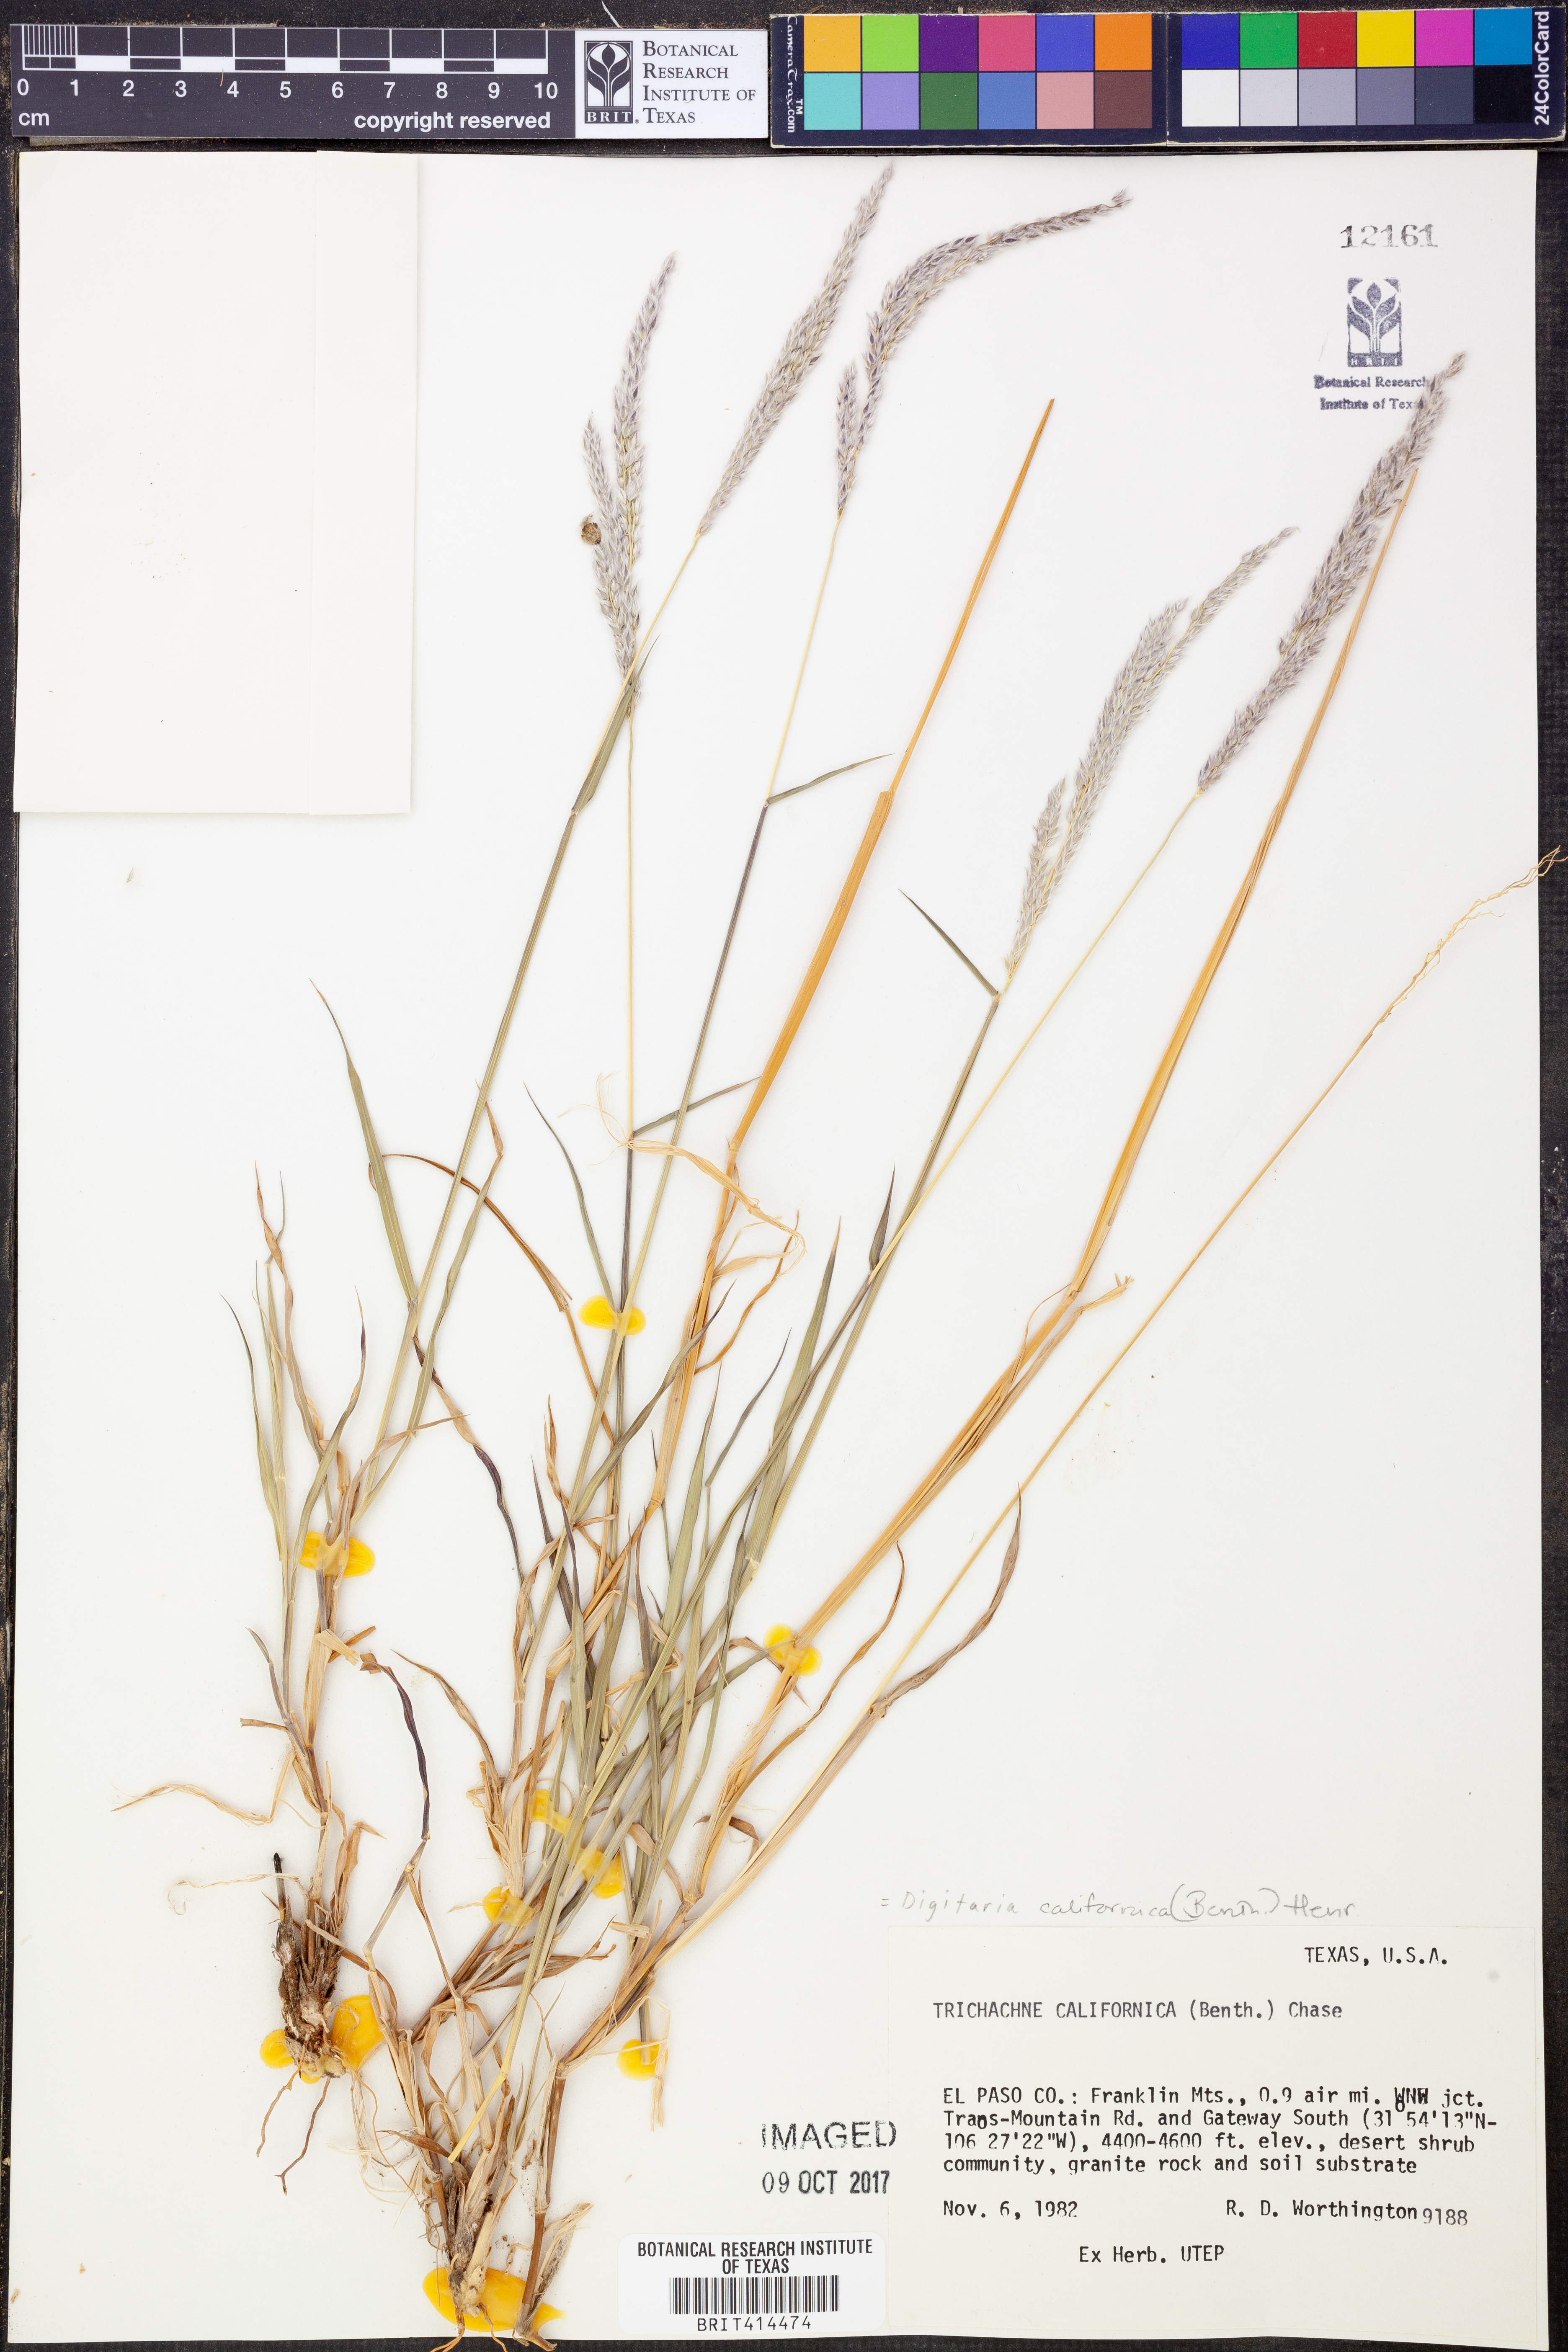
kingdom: Plantae
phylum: Tracheophyta
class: Liliopsida
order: Poales
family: Poaceae
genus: Digitaria
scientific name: Digitaria californica
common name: Arizona cottontop
